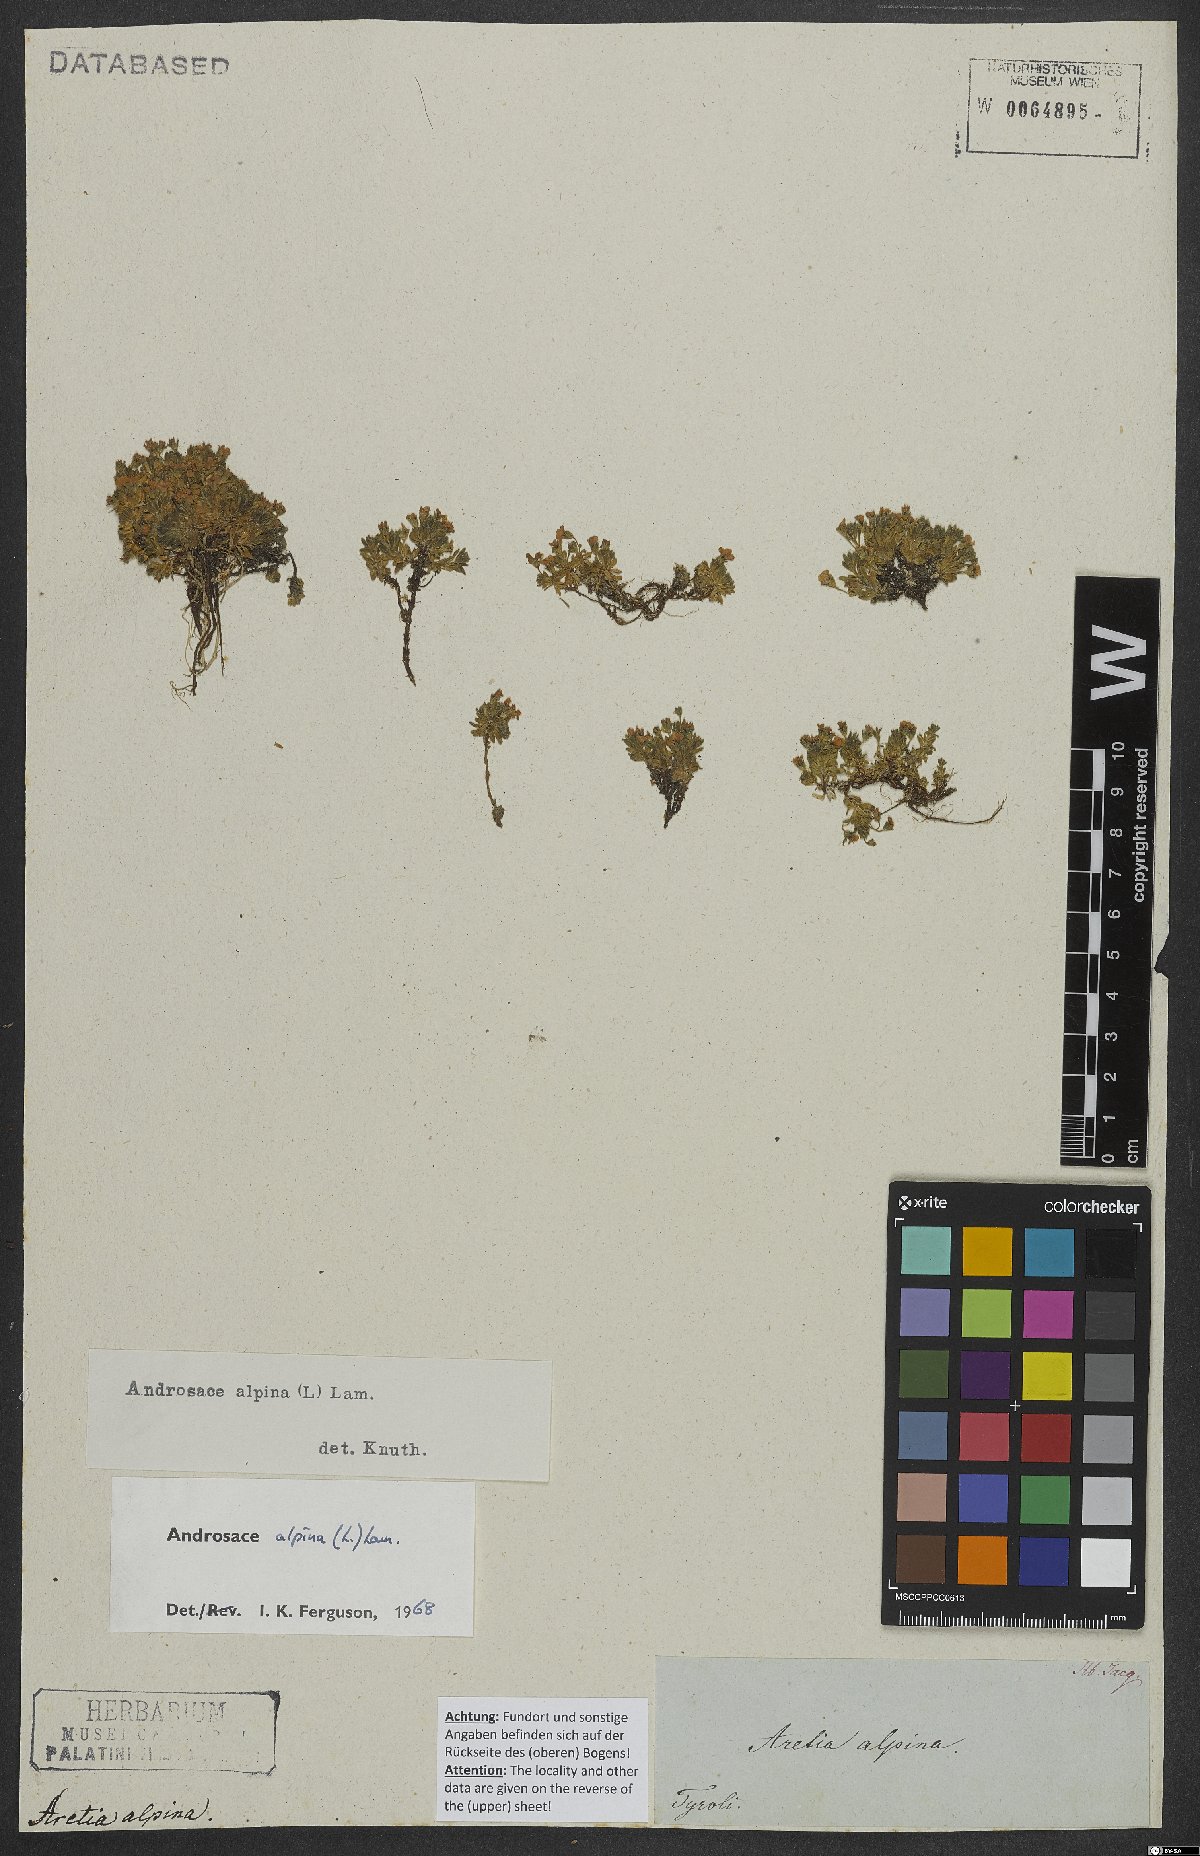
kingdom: Plantae
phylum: Tracheophyta
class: Magnoliopsida
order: Ericales
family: Primulaceae
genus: Androsace
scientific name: Androsace alpina
